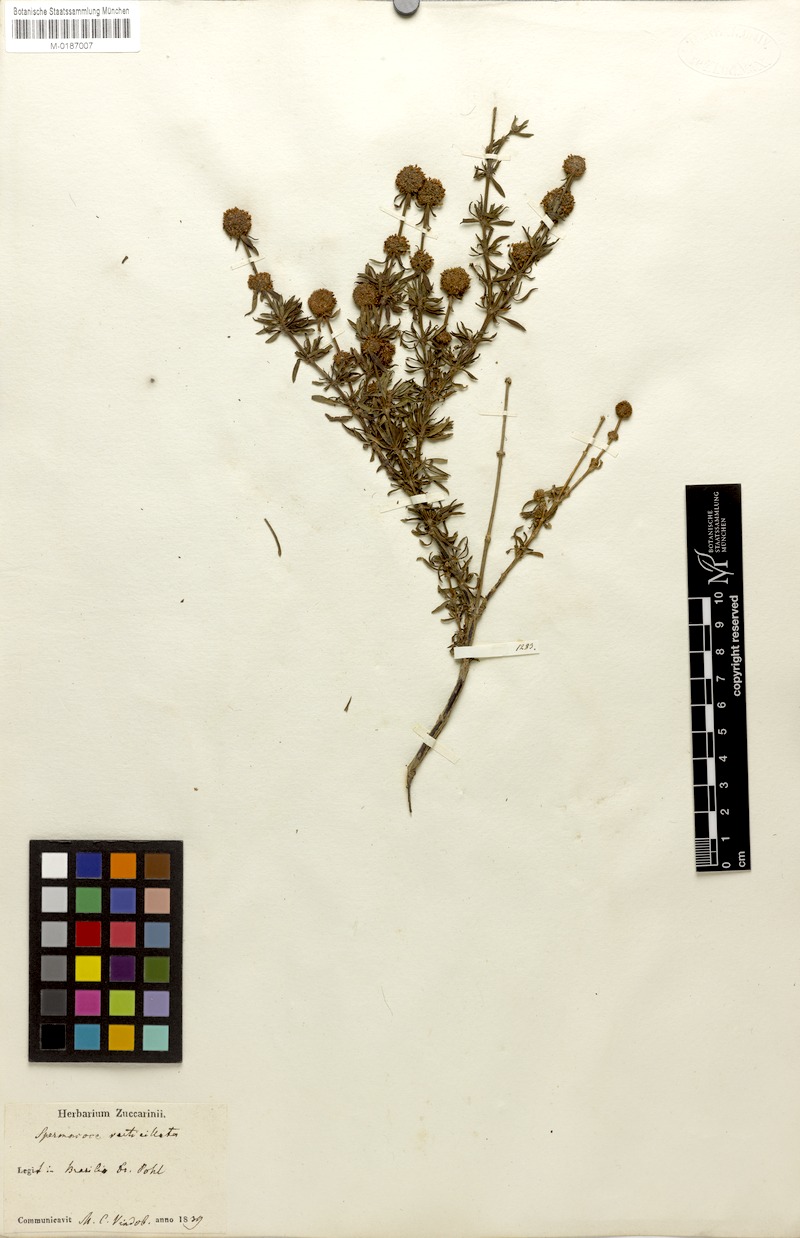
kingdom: Plantae
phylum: Tracheophyta
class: Magnoliopsida
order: Gentianales
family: Rubiaceae
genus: Spermacoce
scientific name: Spermacoce verticillata
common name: Shrubby false buttonweed
